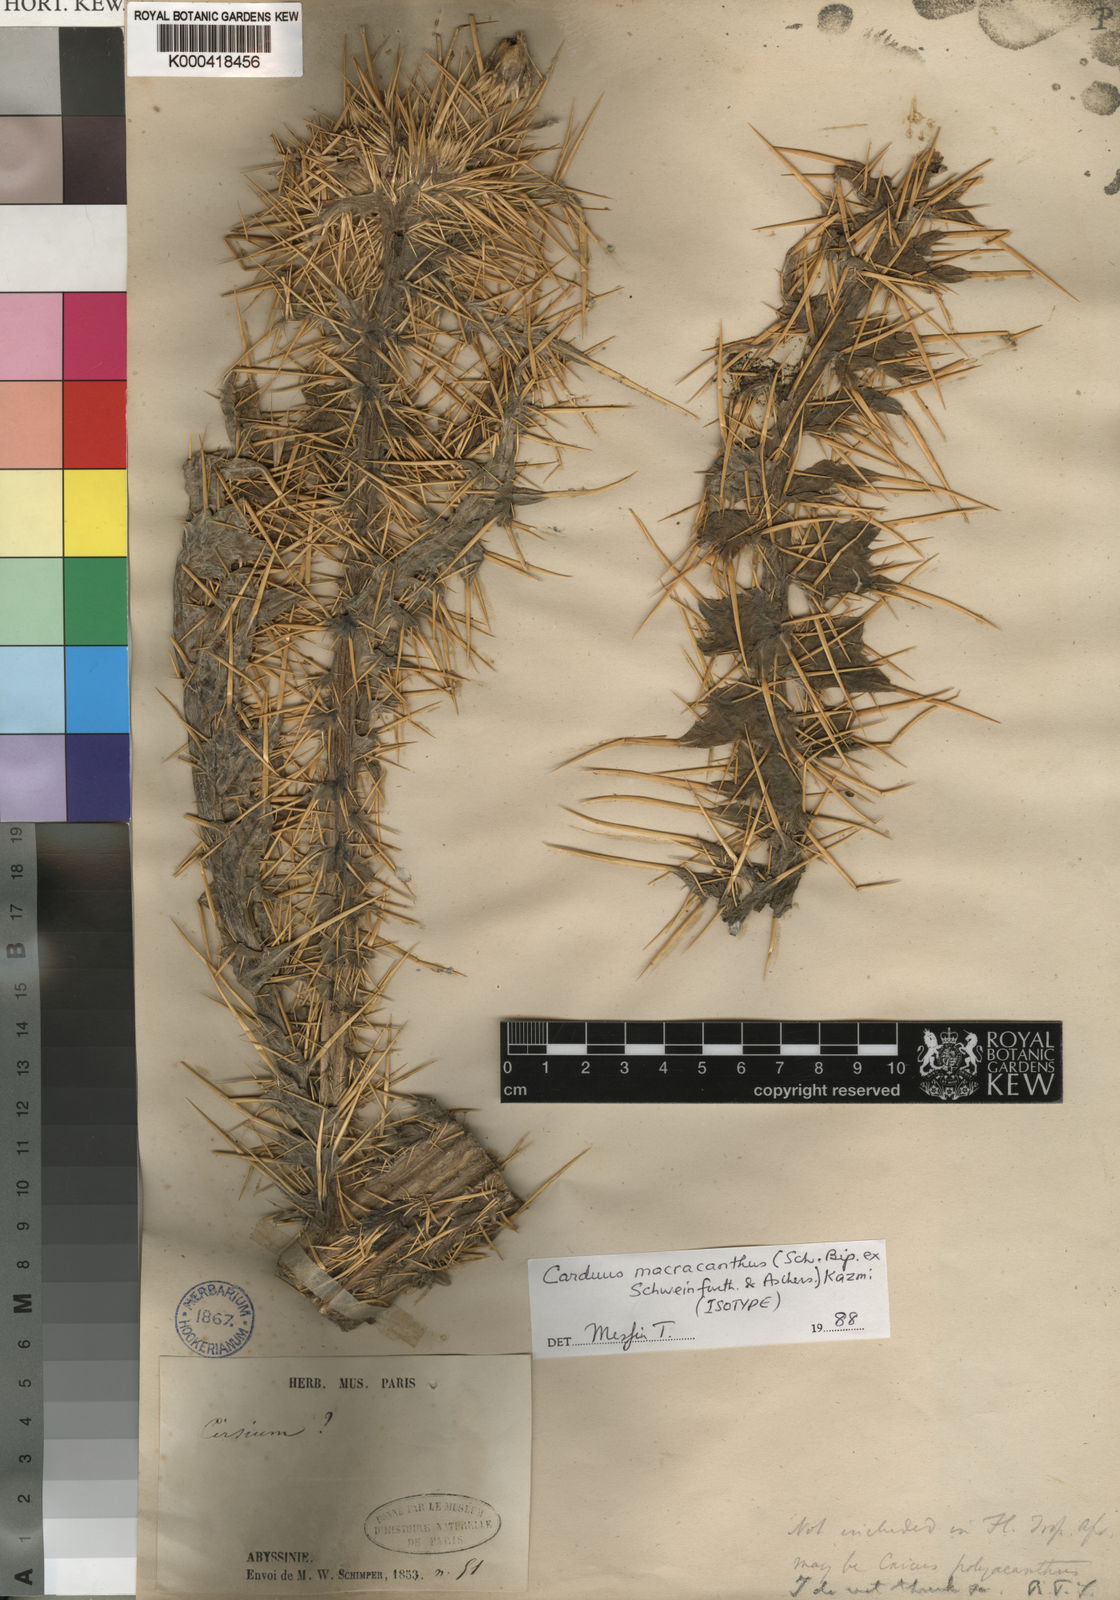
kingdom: Plantae
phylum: Tracheophyta
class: Magnoliopsida
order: Asterales
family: Asteraceae
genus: Carduus
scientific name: Carduus
